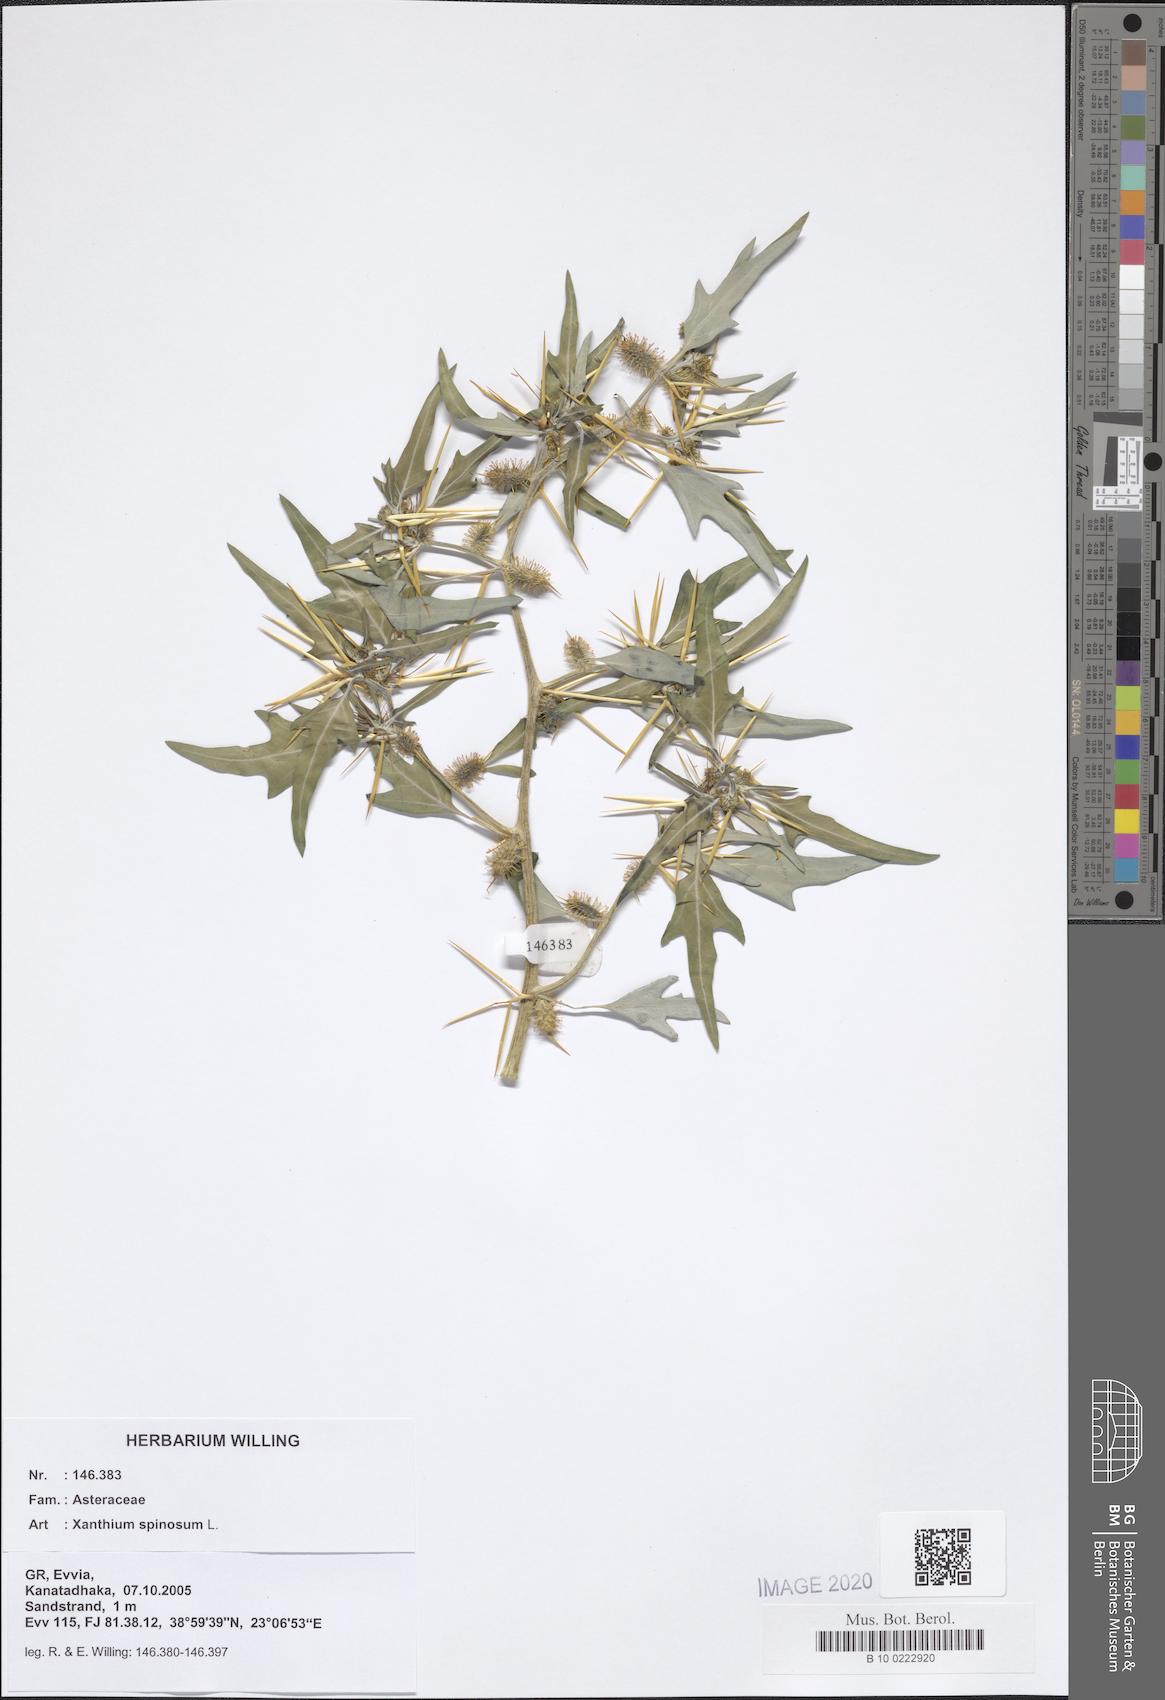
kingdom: Plantae
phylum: Tracheophyta
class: Magnoliopsida
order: Asterales
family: Asteraceae
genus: Xanthium
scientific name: Xanthium spinosum
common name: Spiny cocklebur
